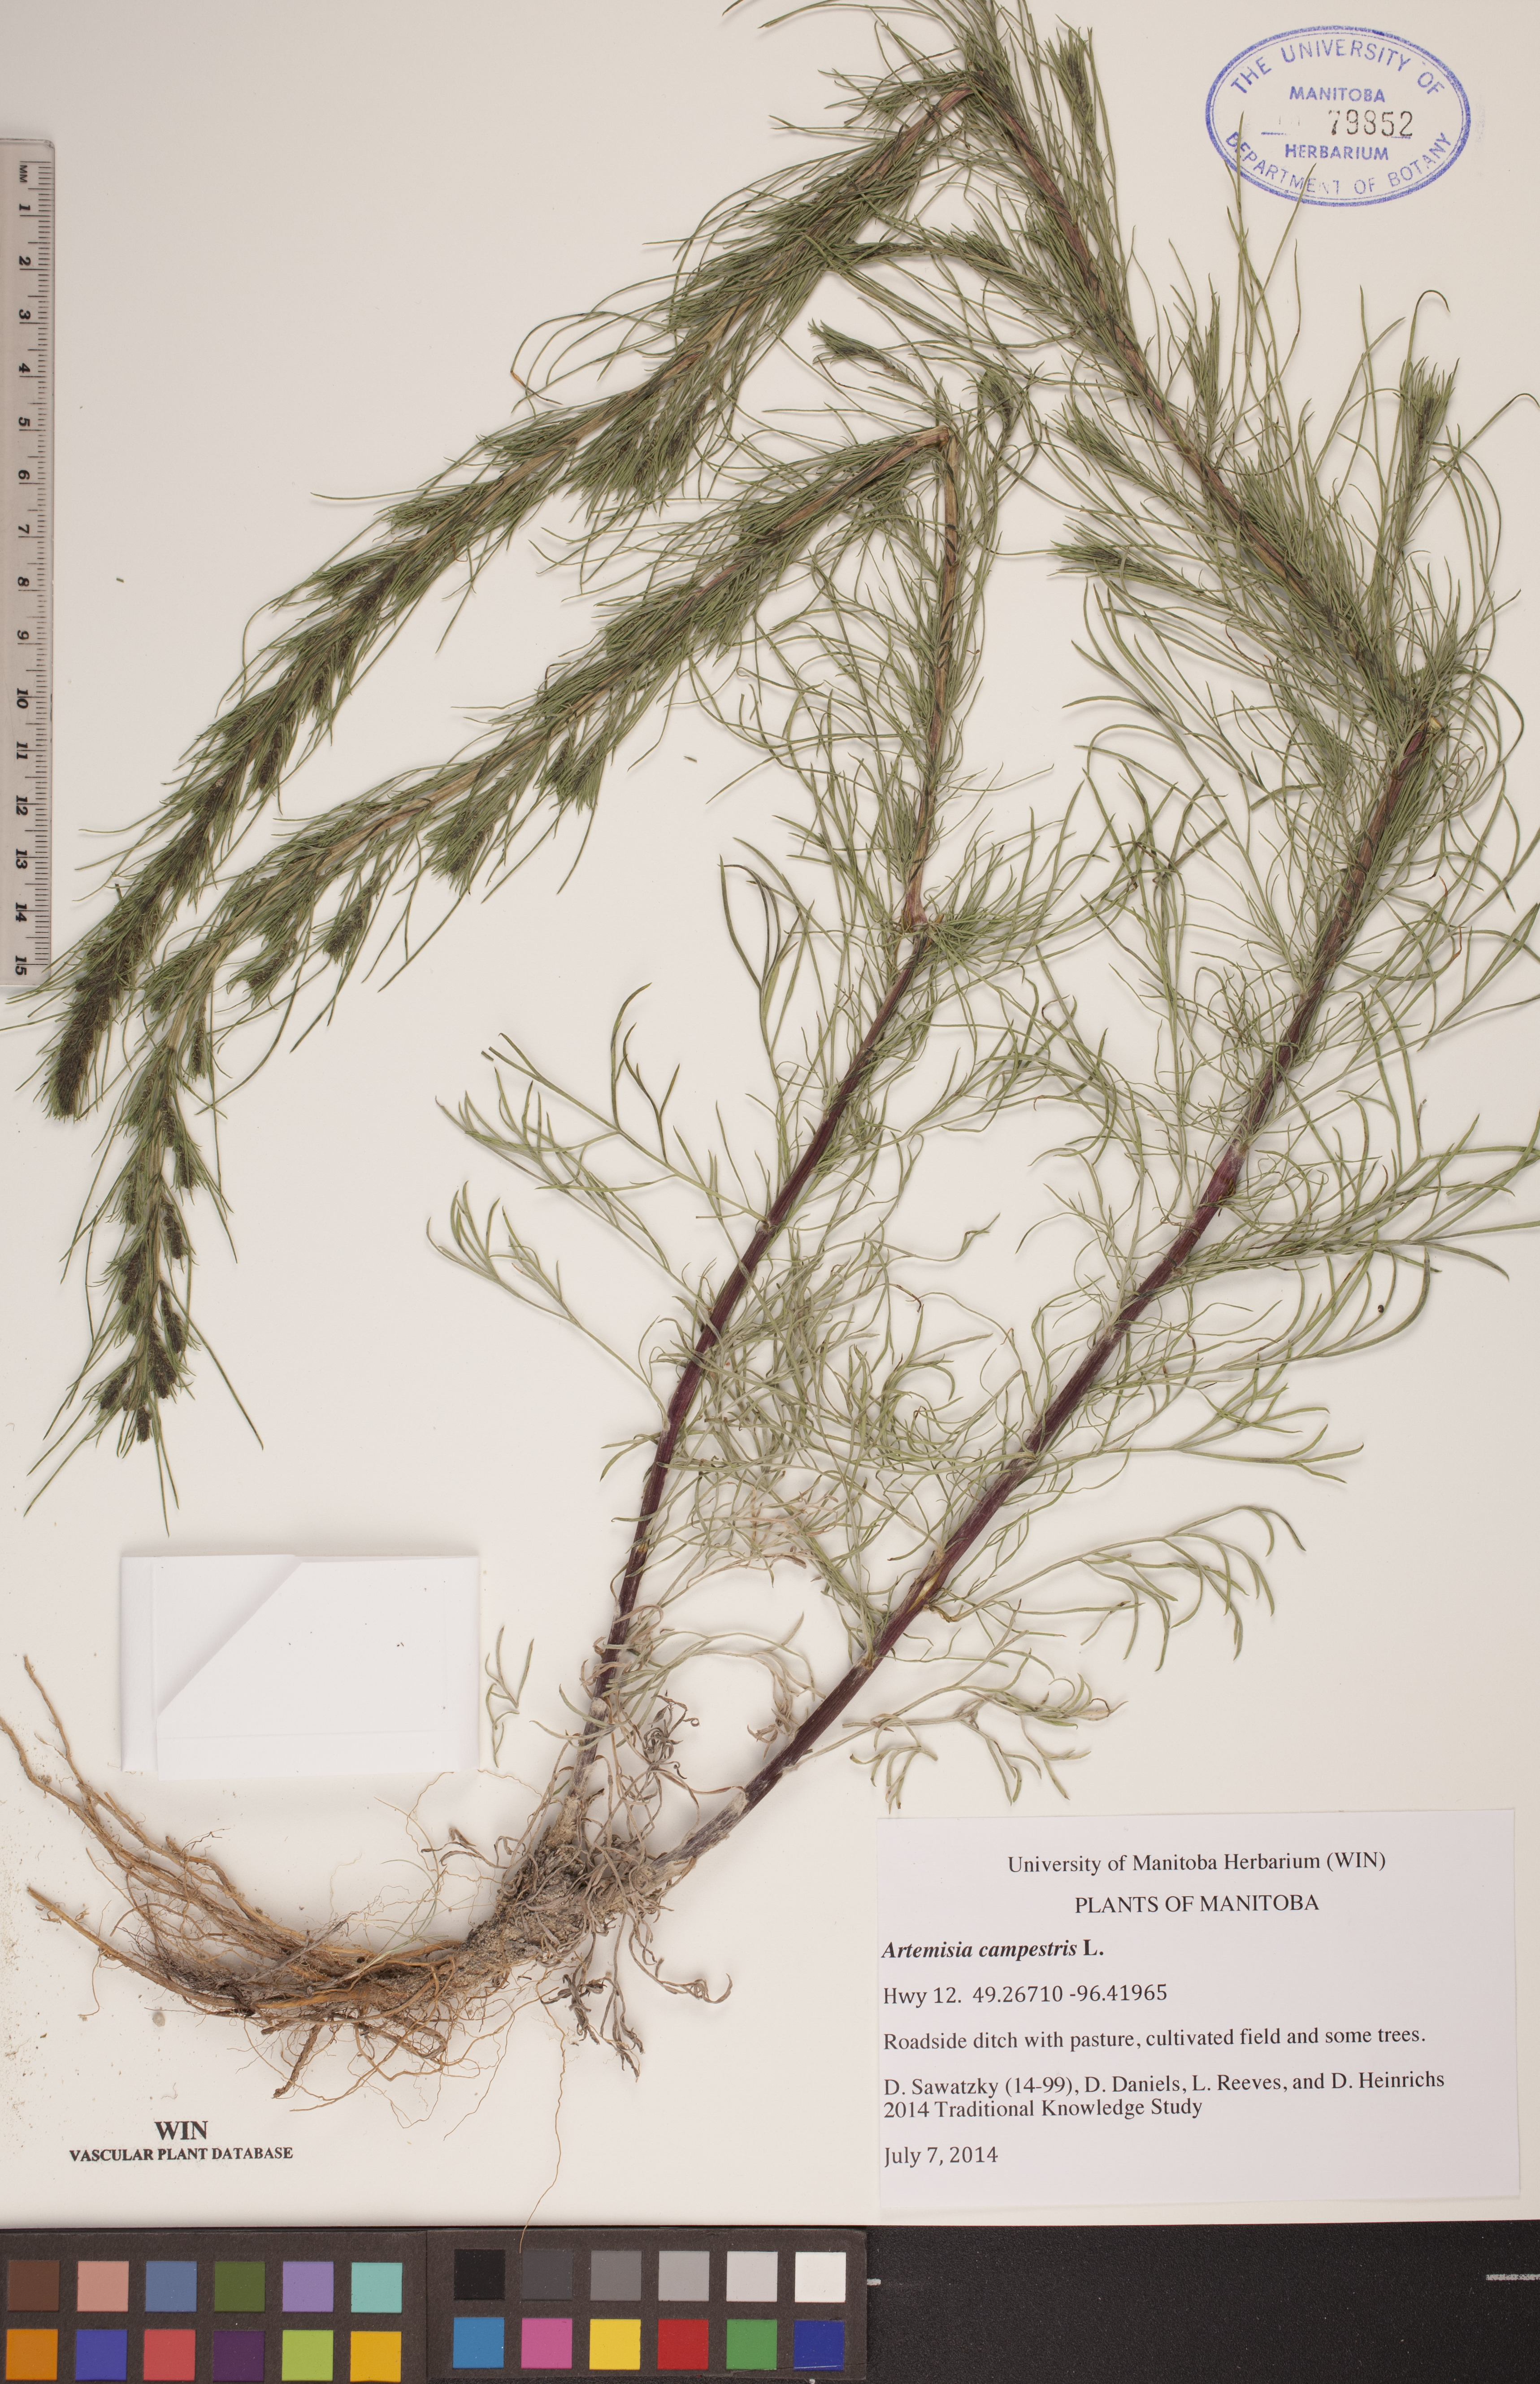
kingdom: Plantae
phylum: Tracheophyta
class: Magnoliopsida
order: Asterales
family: Asteraceae
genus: Artemisia
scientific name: Artemisia campestris
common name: Field wormwood
